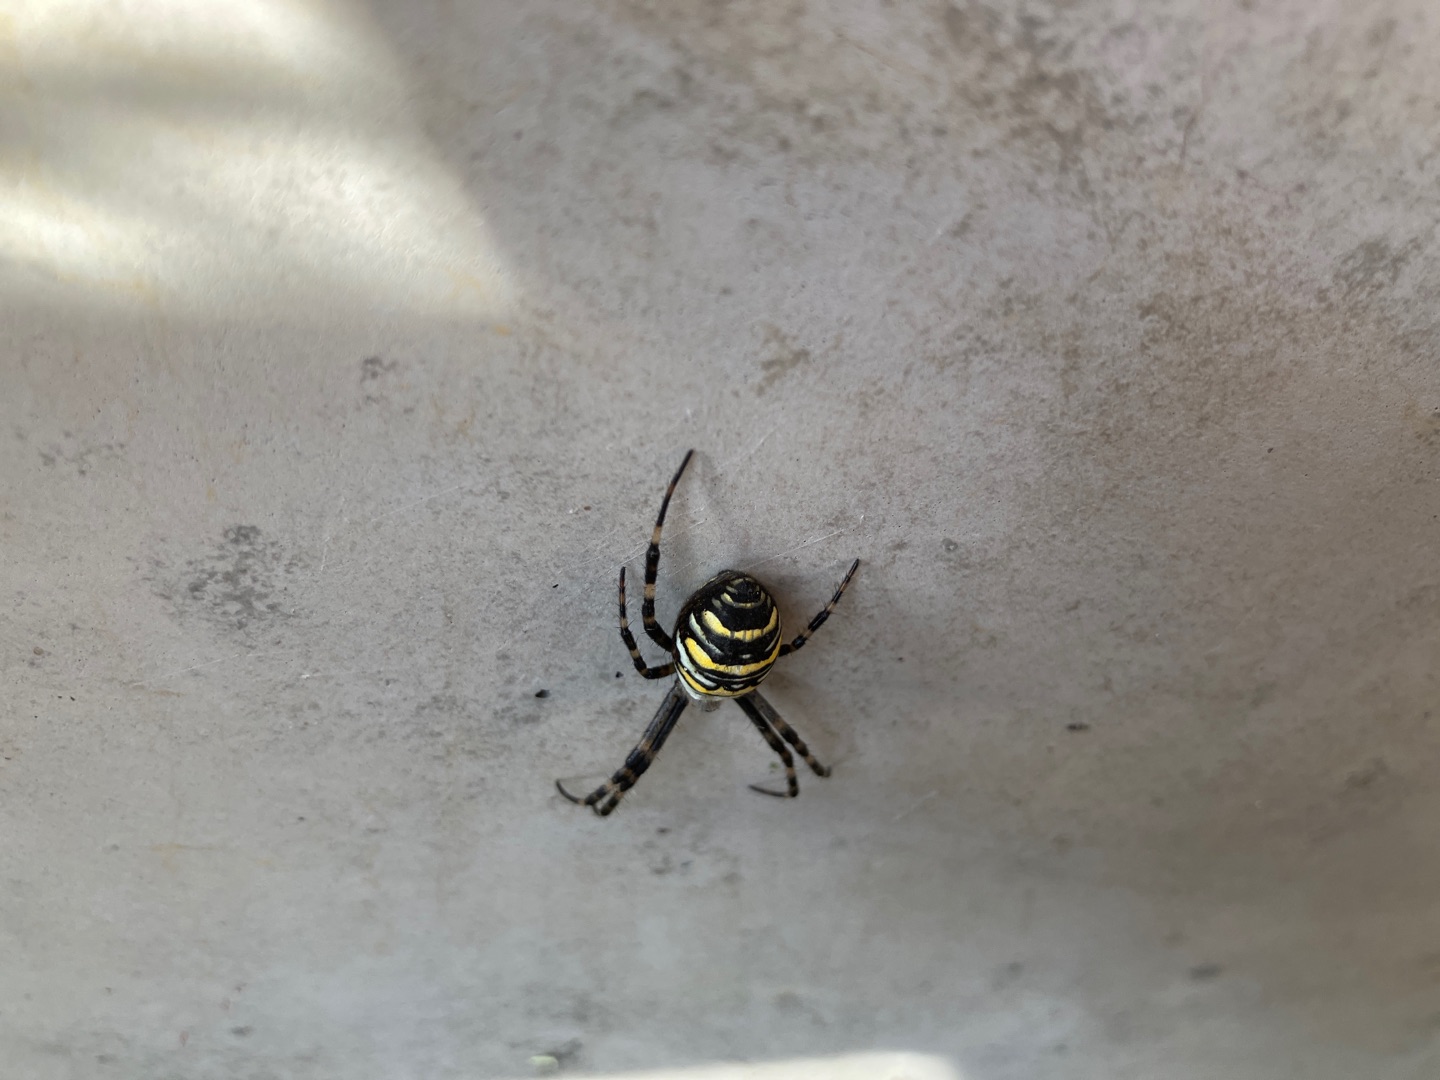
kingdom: Animalia
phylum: Arthropoda
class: Arachnida
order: Araneae
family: Araneidae
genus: Argiope
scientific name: Argiope bruennichi
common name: Hvepseedderkop
